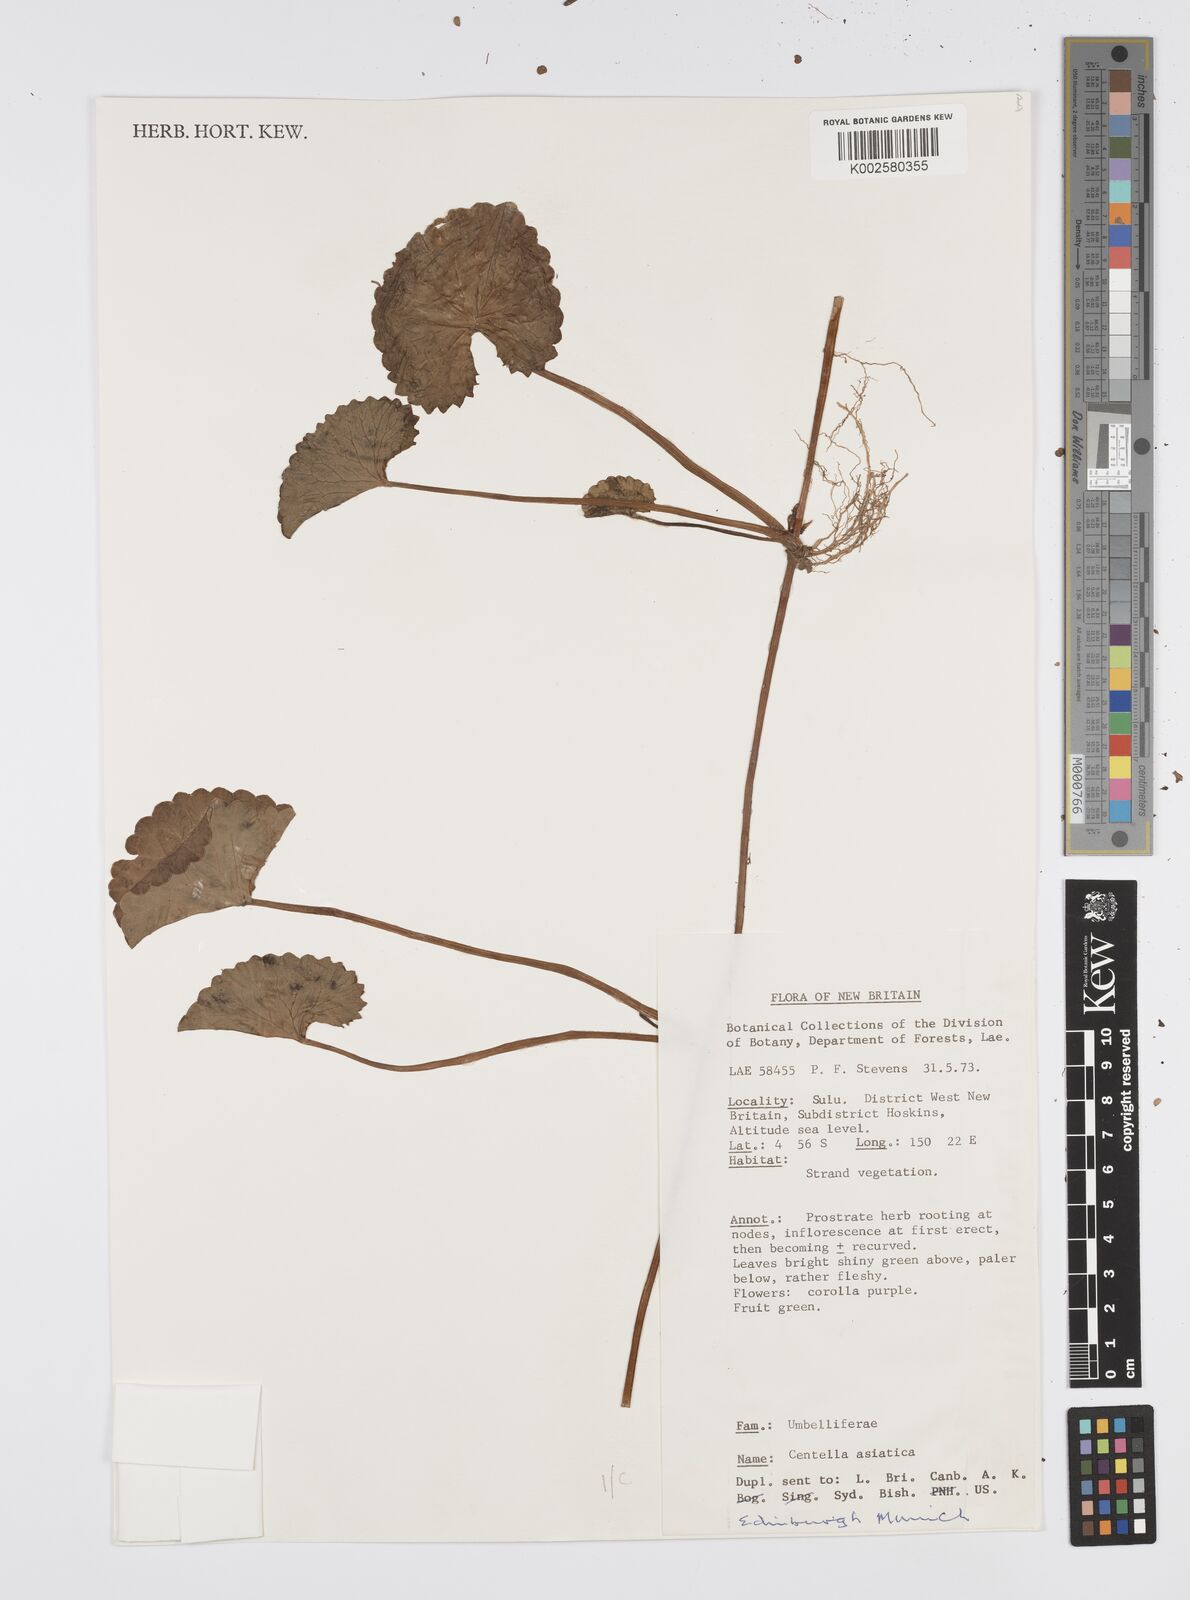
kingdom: Plantae
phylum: Tracheophyta
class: Magnoliopsida
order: Apiales
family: Apiaceae
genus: Centella
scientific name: Centella asiatica
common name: Spadeleaf
